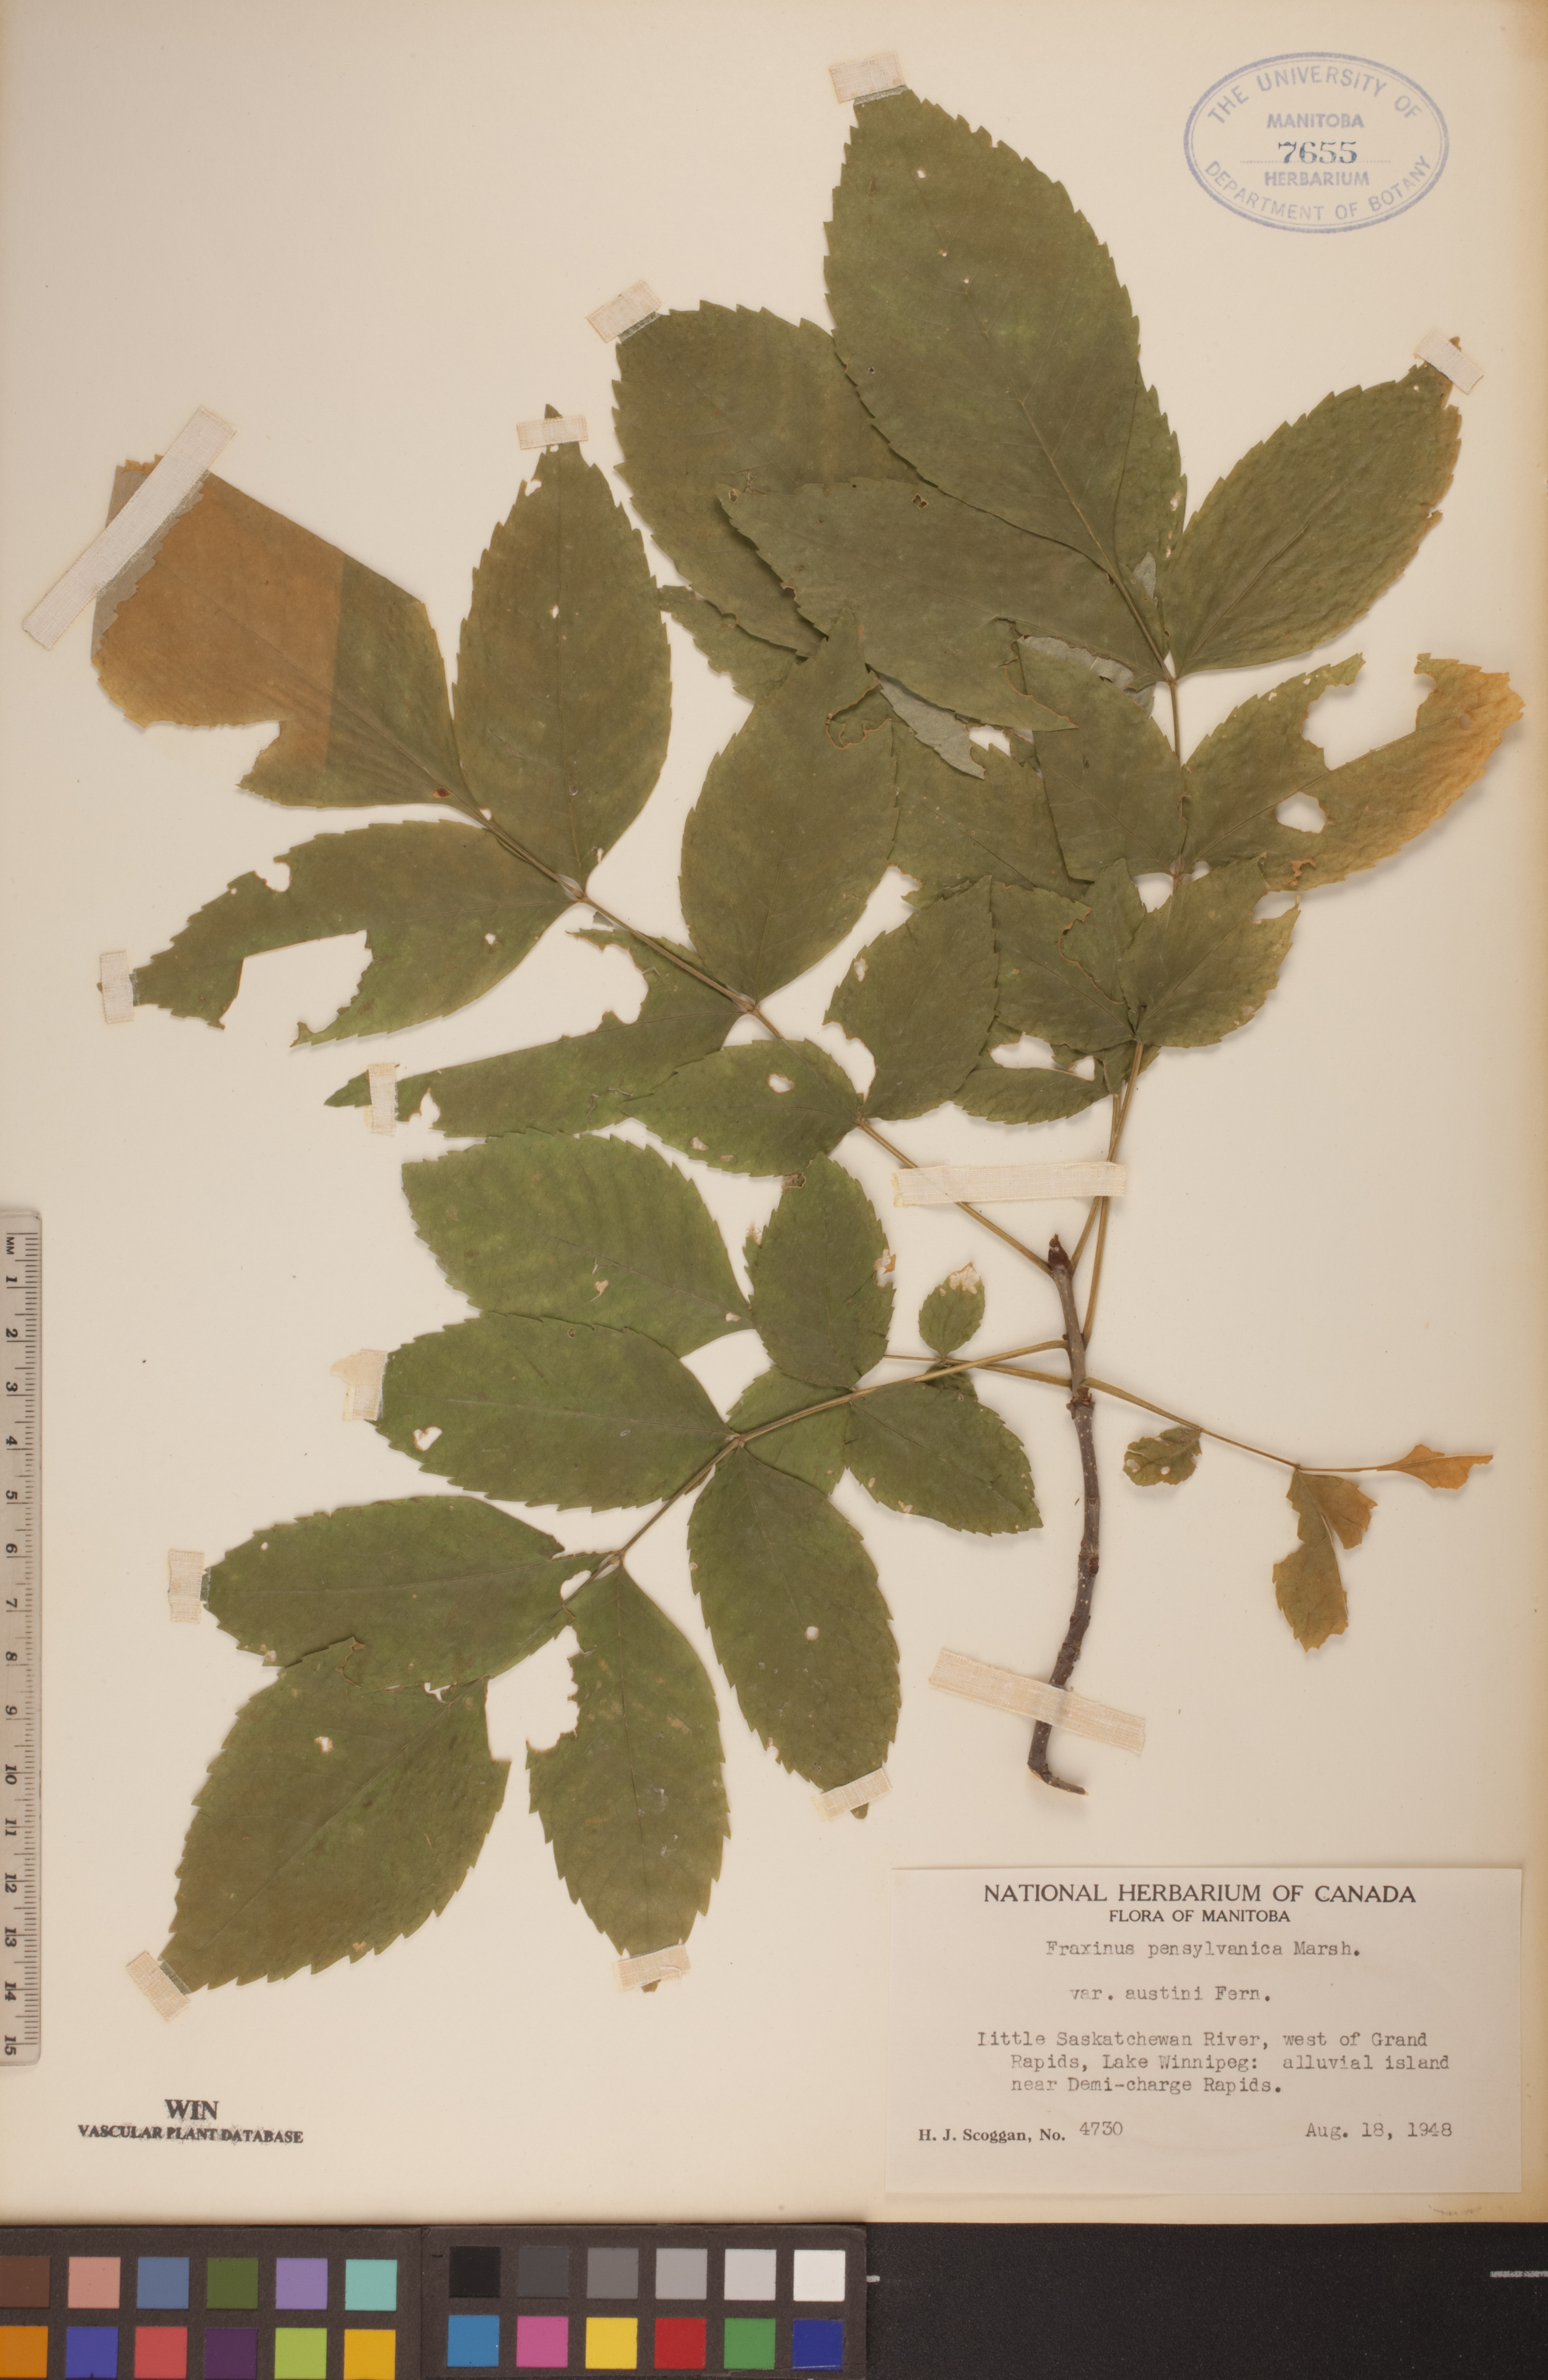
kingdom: Plantae
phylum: Tracheophyta
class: Magnoliopsida
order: Lamiales
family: Oleaceae
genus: Fraxinus
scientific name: Fraxinus pennsylvanica
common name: Green ash
